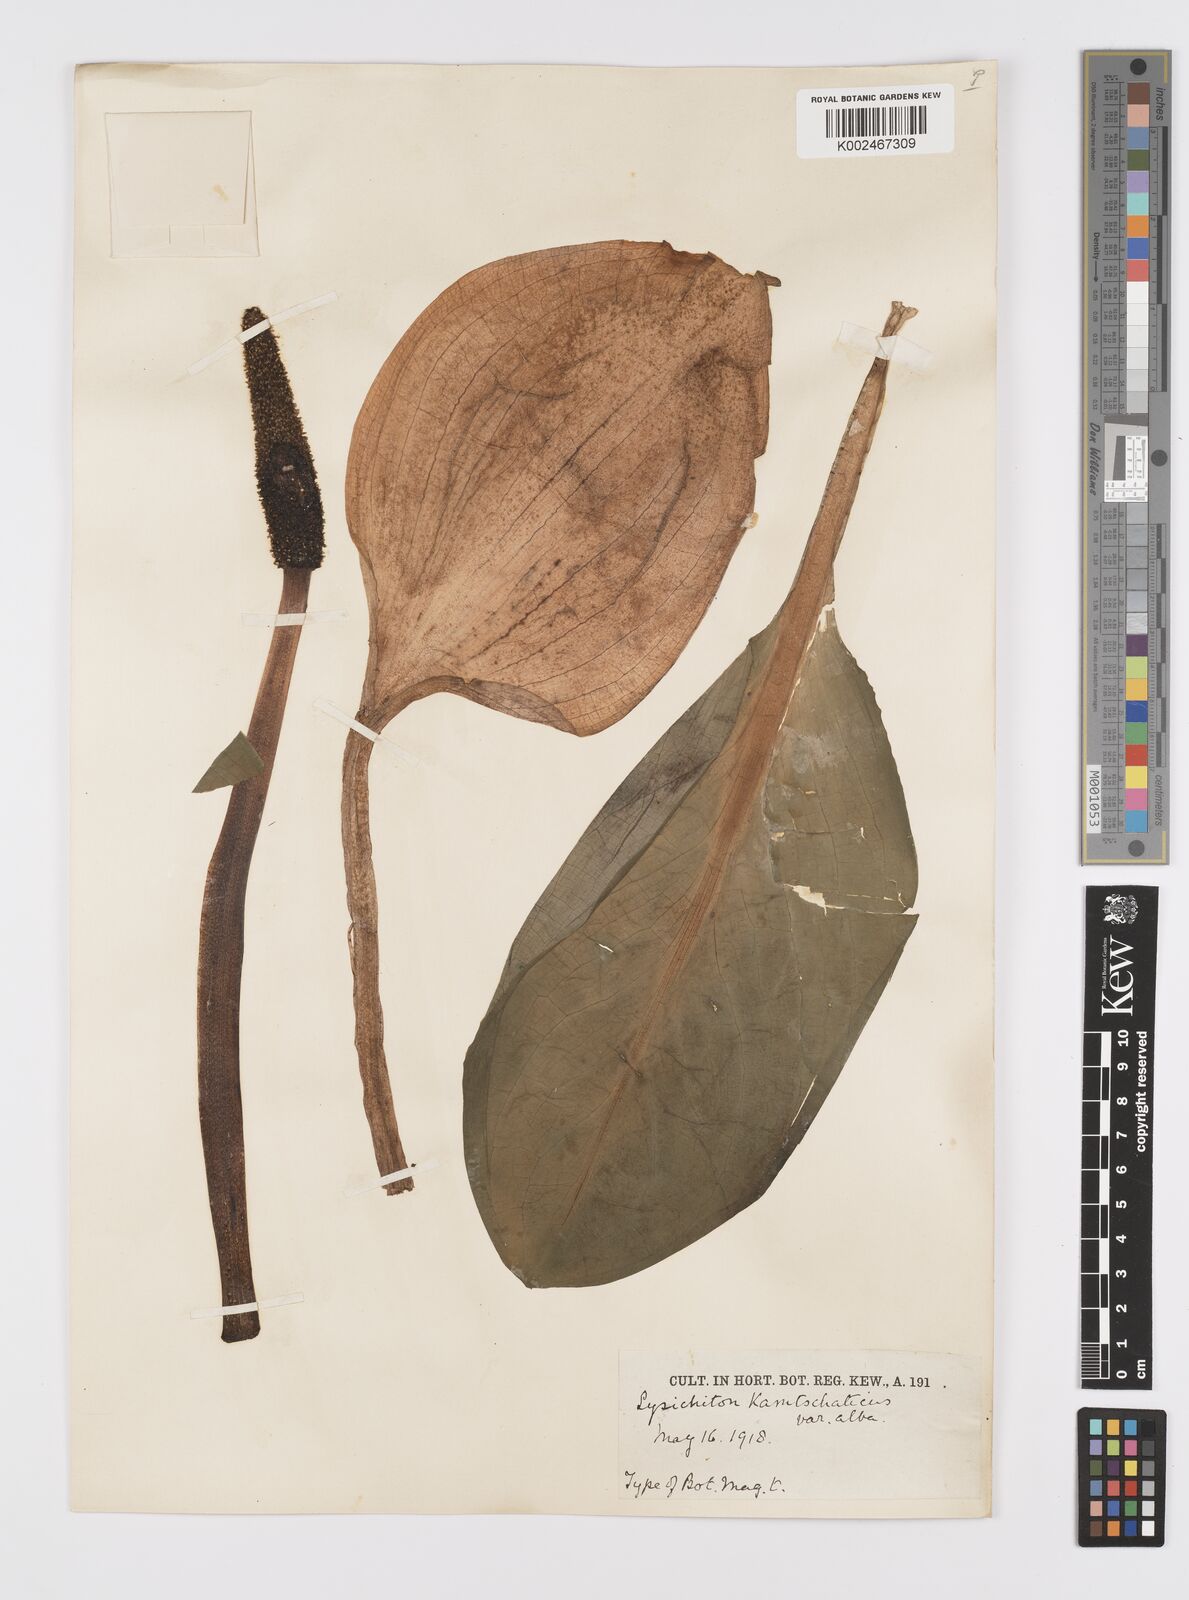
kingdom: Plantae
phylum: Tracheophyta
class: Liliopsida
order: Alismatales
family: Araceae
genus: Lysichiton
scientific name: Lysichiton camtschatcensis
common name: Asian skunk-cabbage
